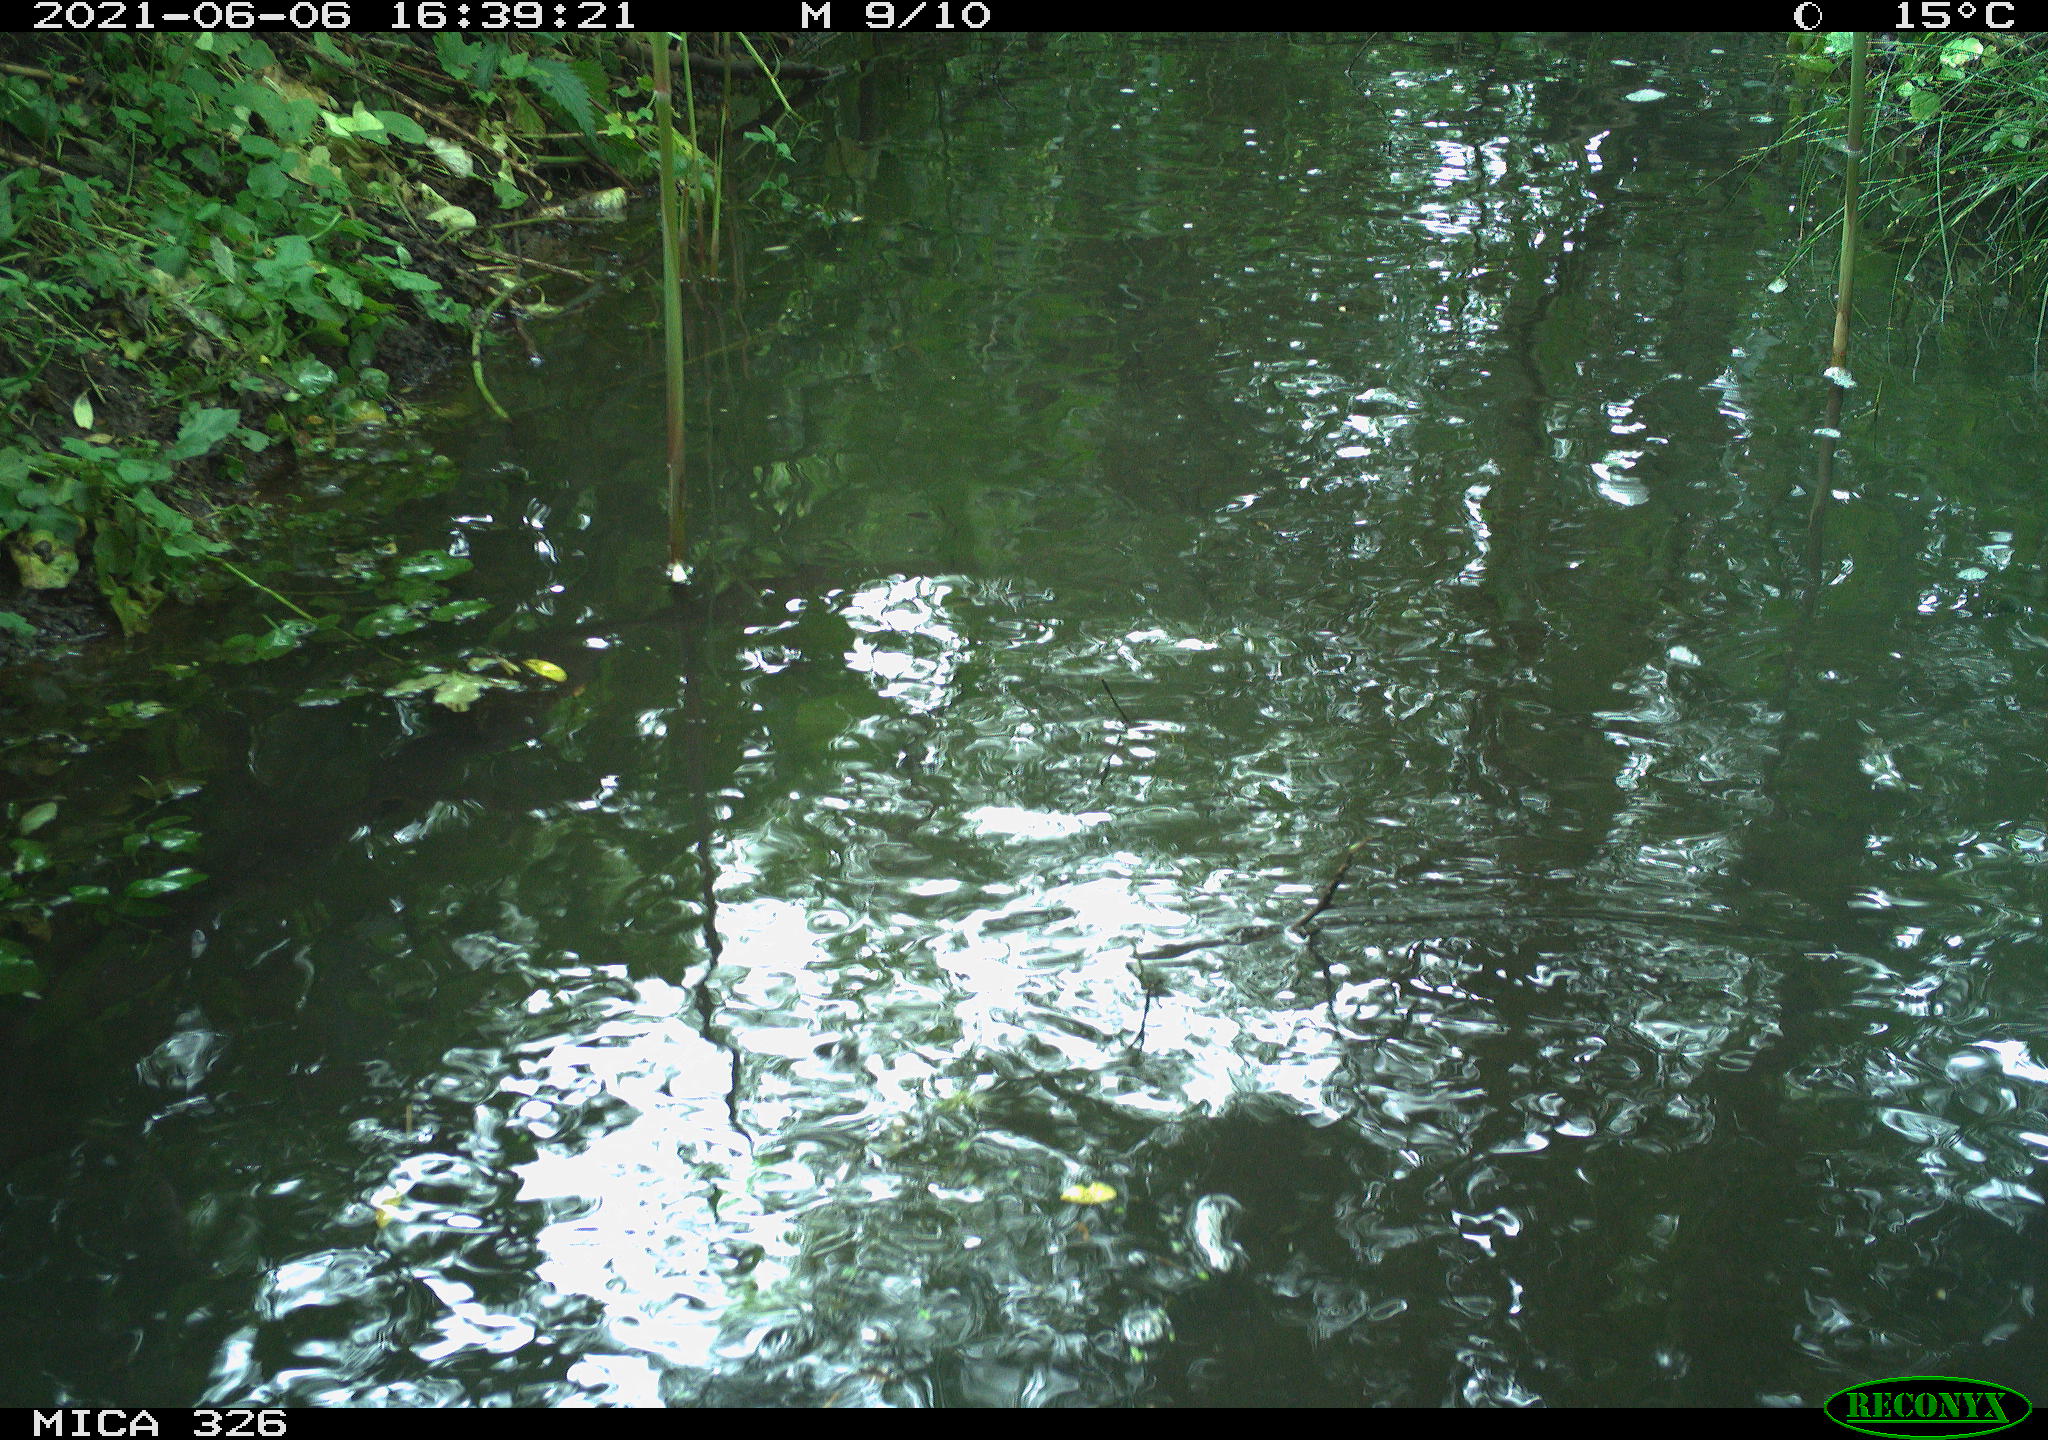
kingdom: Animalia
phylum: Chordata
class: Aves
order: Anseriformes
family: Anatidae
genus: Anas
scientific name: Anas platyrhynchos
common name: Mallard
